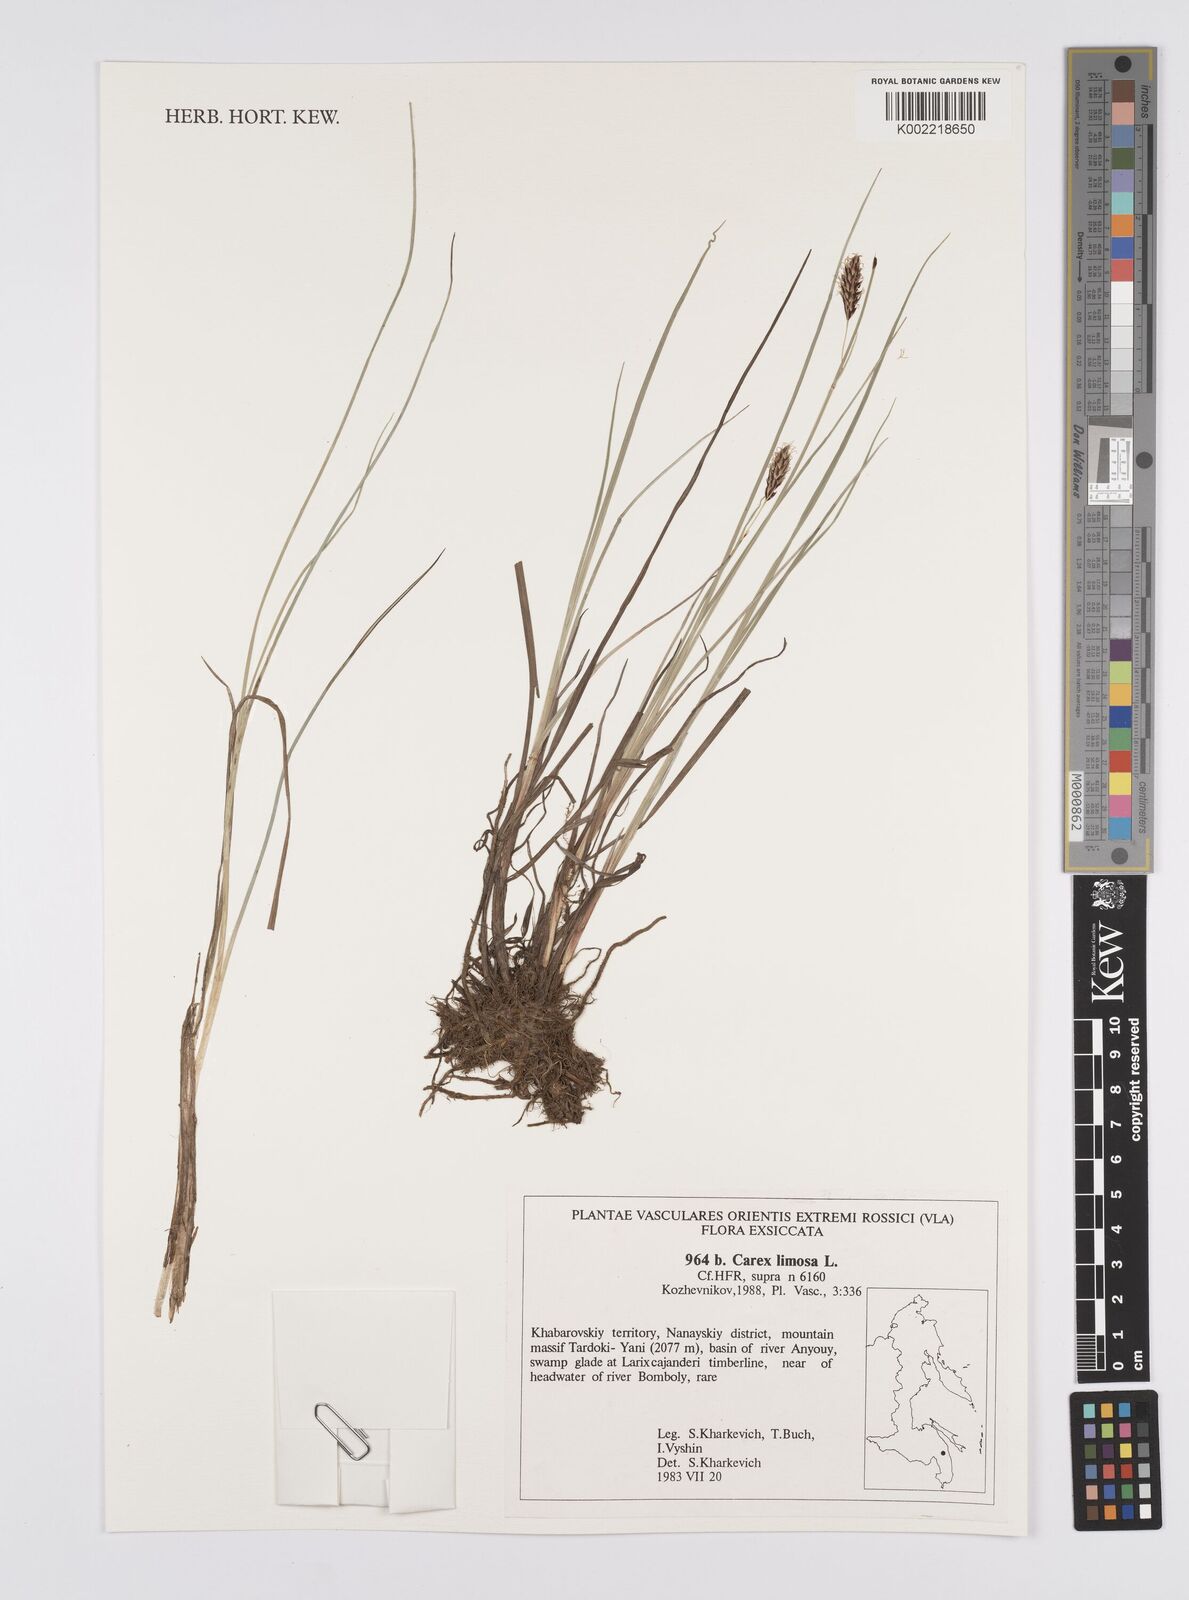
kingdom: Plantae
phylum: Tracheophyta
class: Liliopsida
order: Poales
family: Cyperaceae
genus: Carex
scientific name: Carex limosa
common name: Bog sedge
